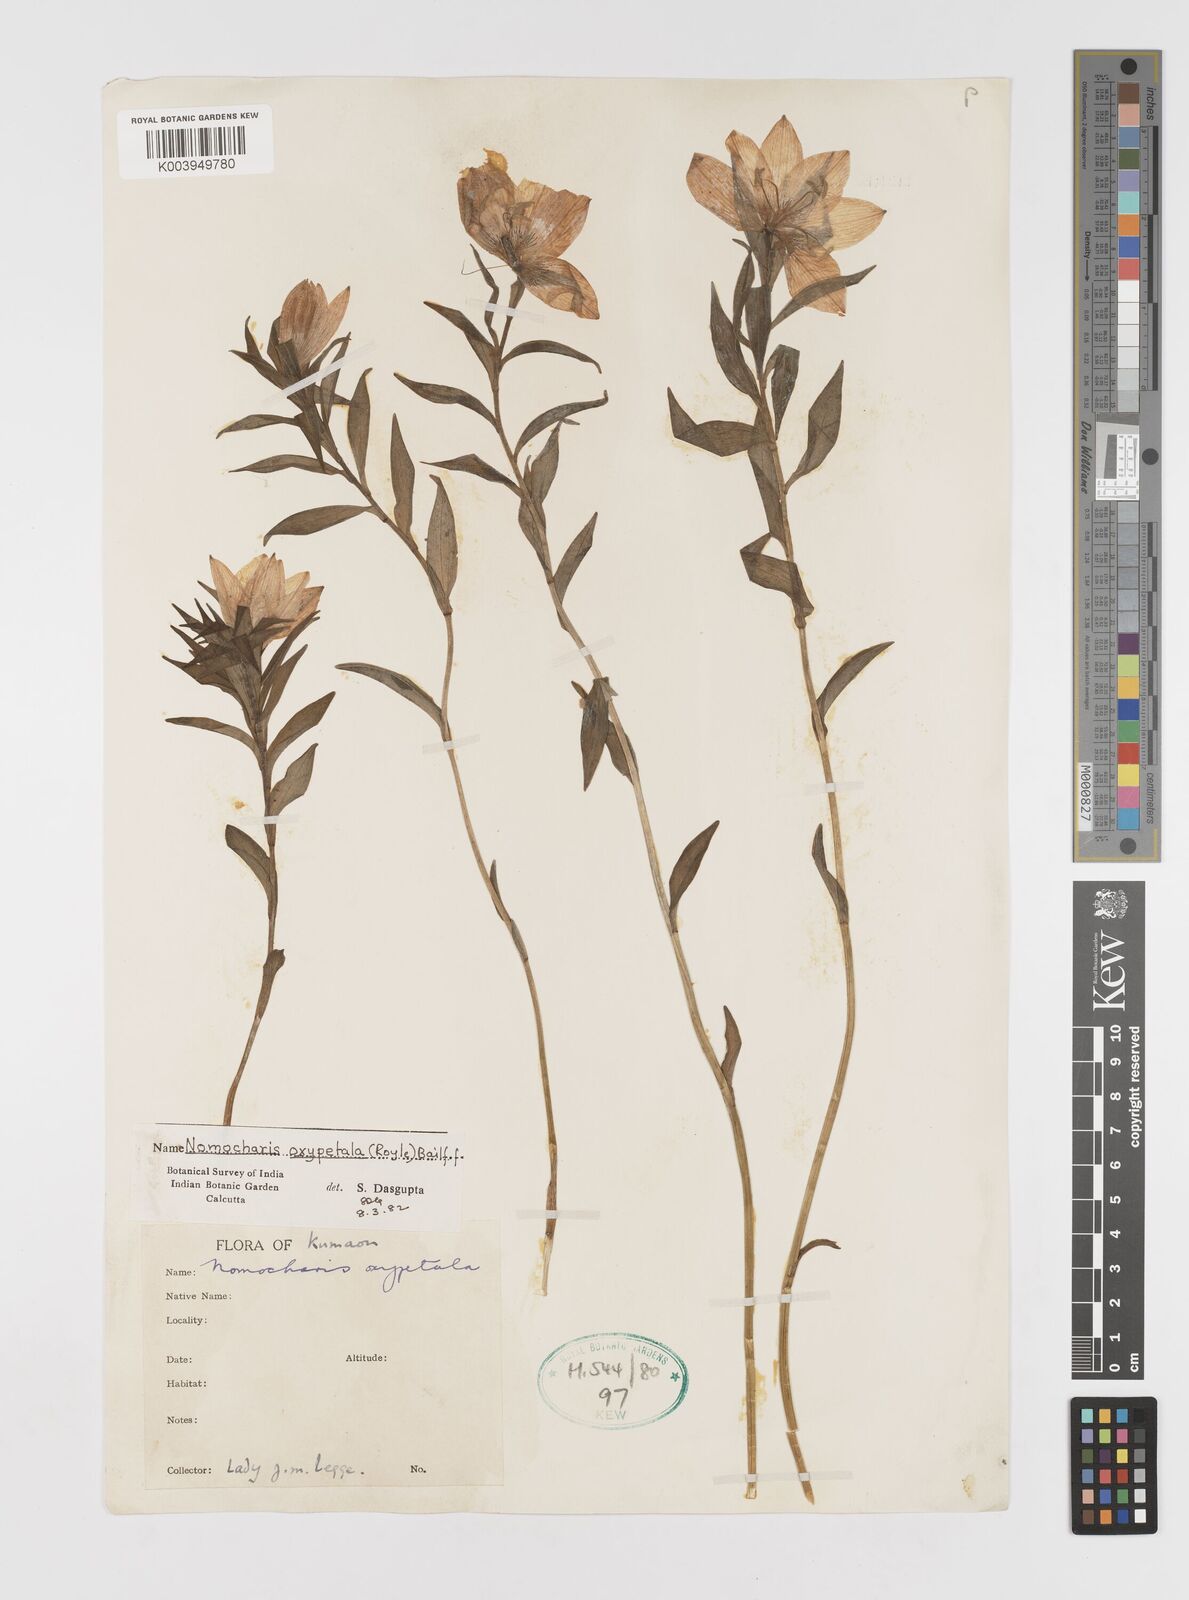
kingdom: Plantae
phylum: Tracheophyta
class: Liliopsida
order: Liliales
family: Liliaceae
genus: Lilium
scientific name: Lilium oxypetalum
